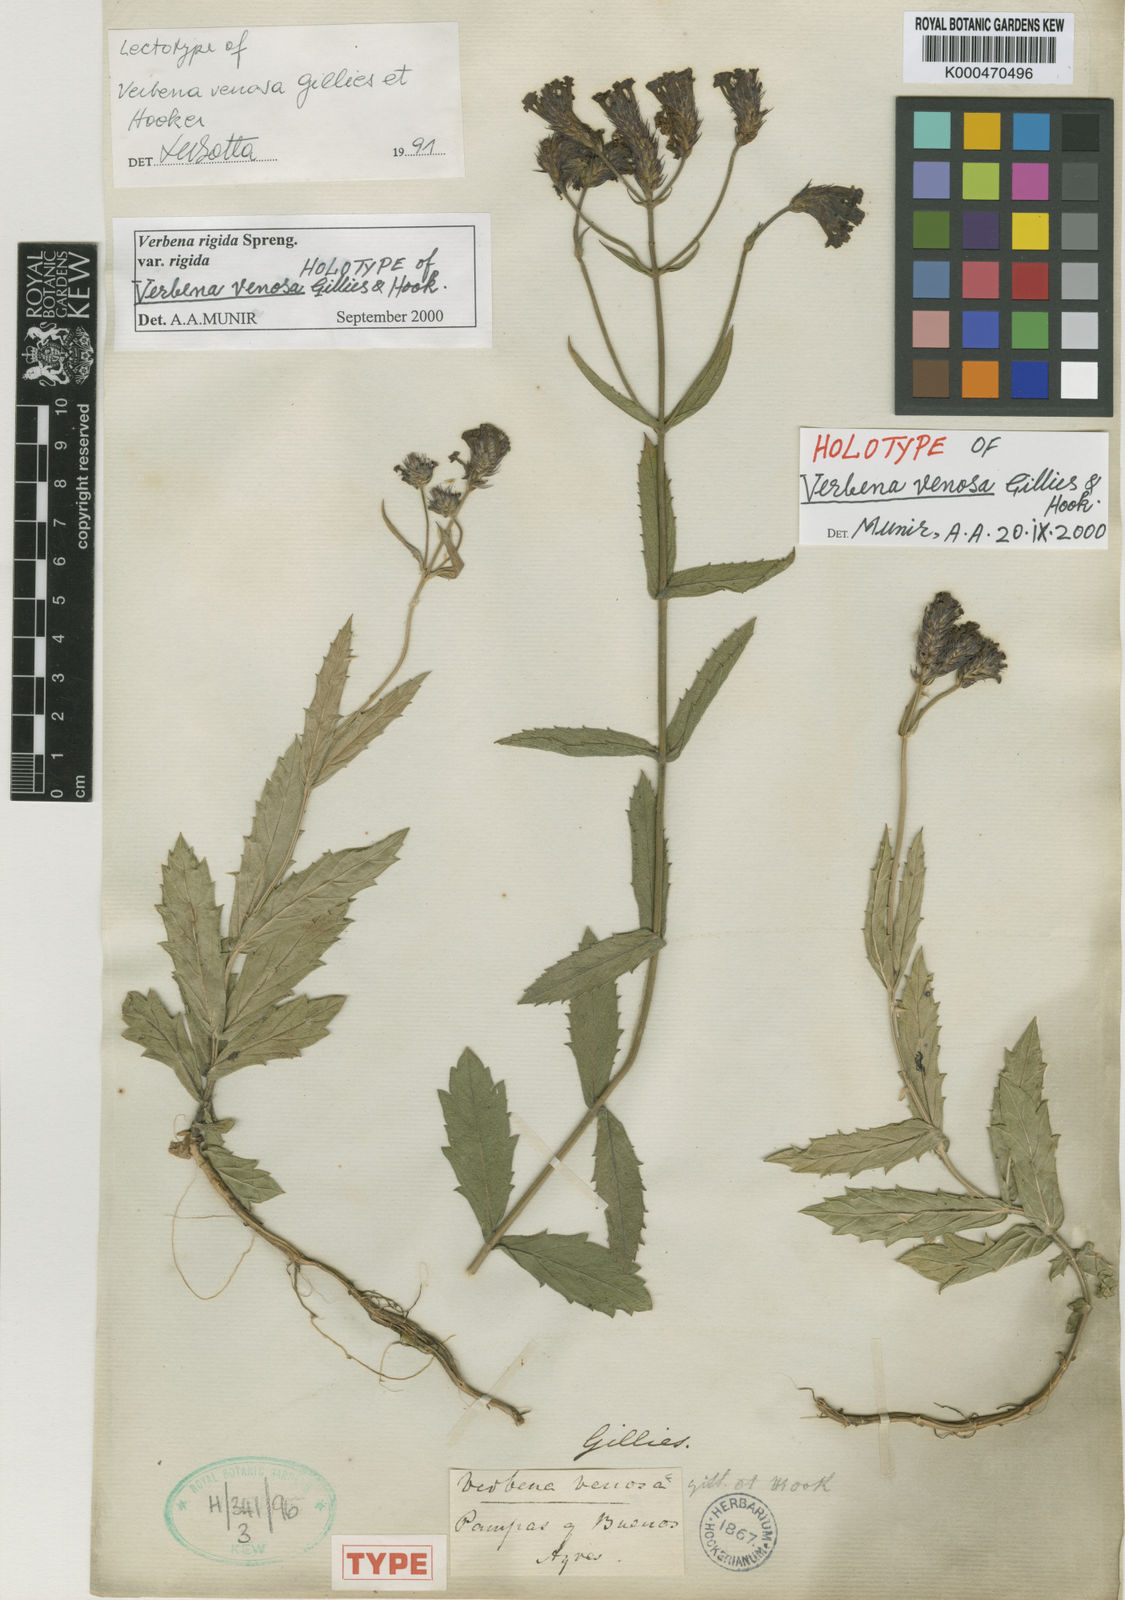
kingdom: Plantae
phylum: Tracheophyta
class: Magnoliopsida
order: Lamiales
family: Verbenaceae
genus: Verbena
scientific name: Verbena rigida
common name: Slender vervain
